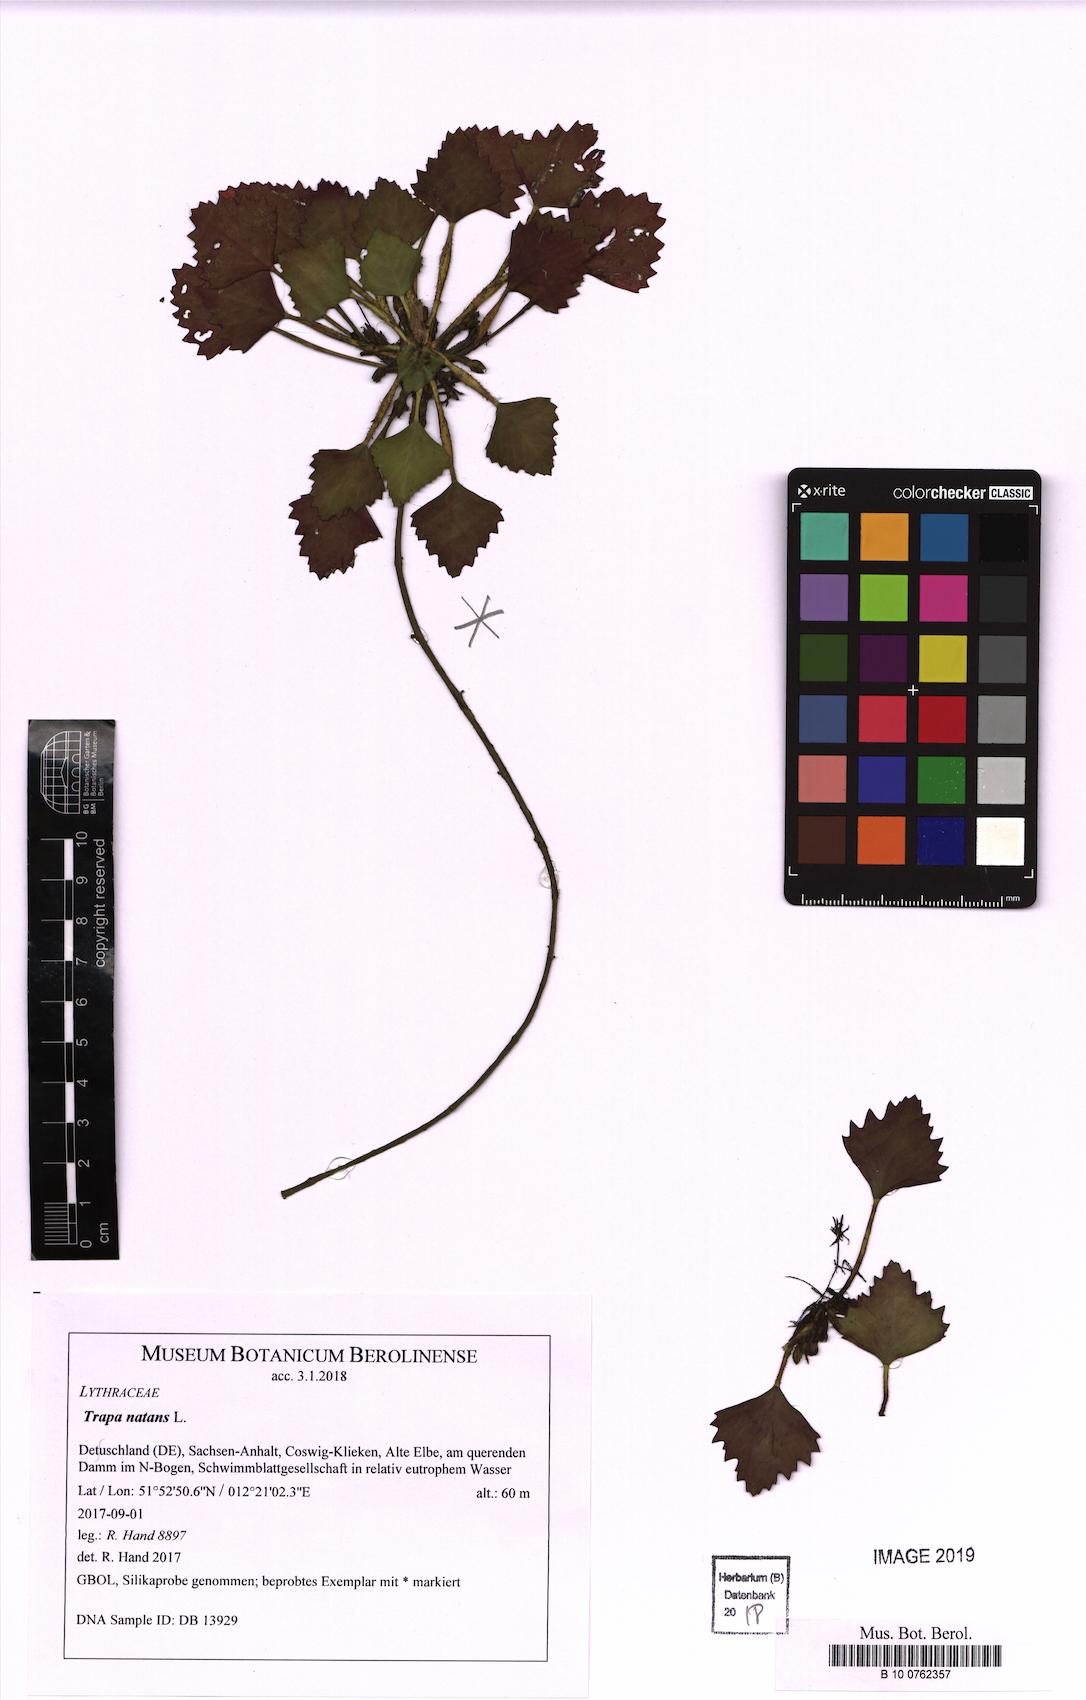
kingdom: Plantae
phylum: Tracheophyta
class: Magnoliopsida
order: Myrtales
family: Lythraceae
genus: Trapa
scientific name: Trapa natans
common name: Water chestnut
